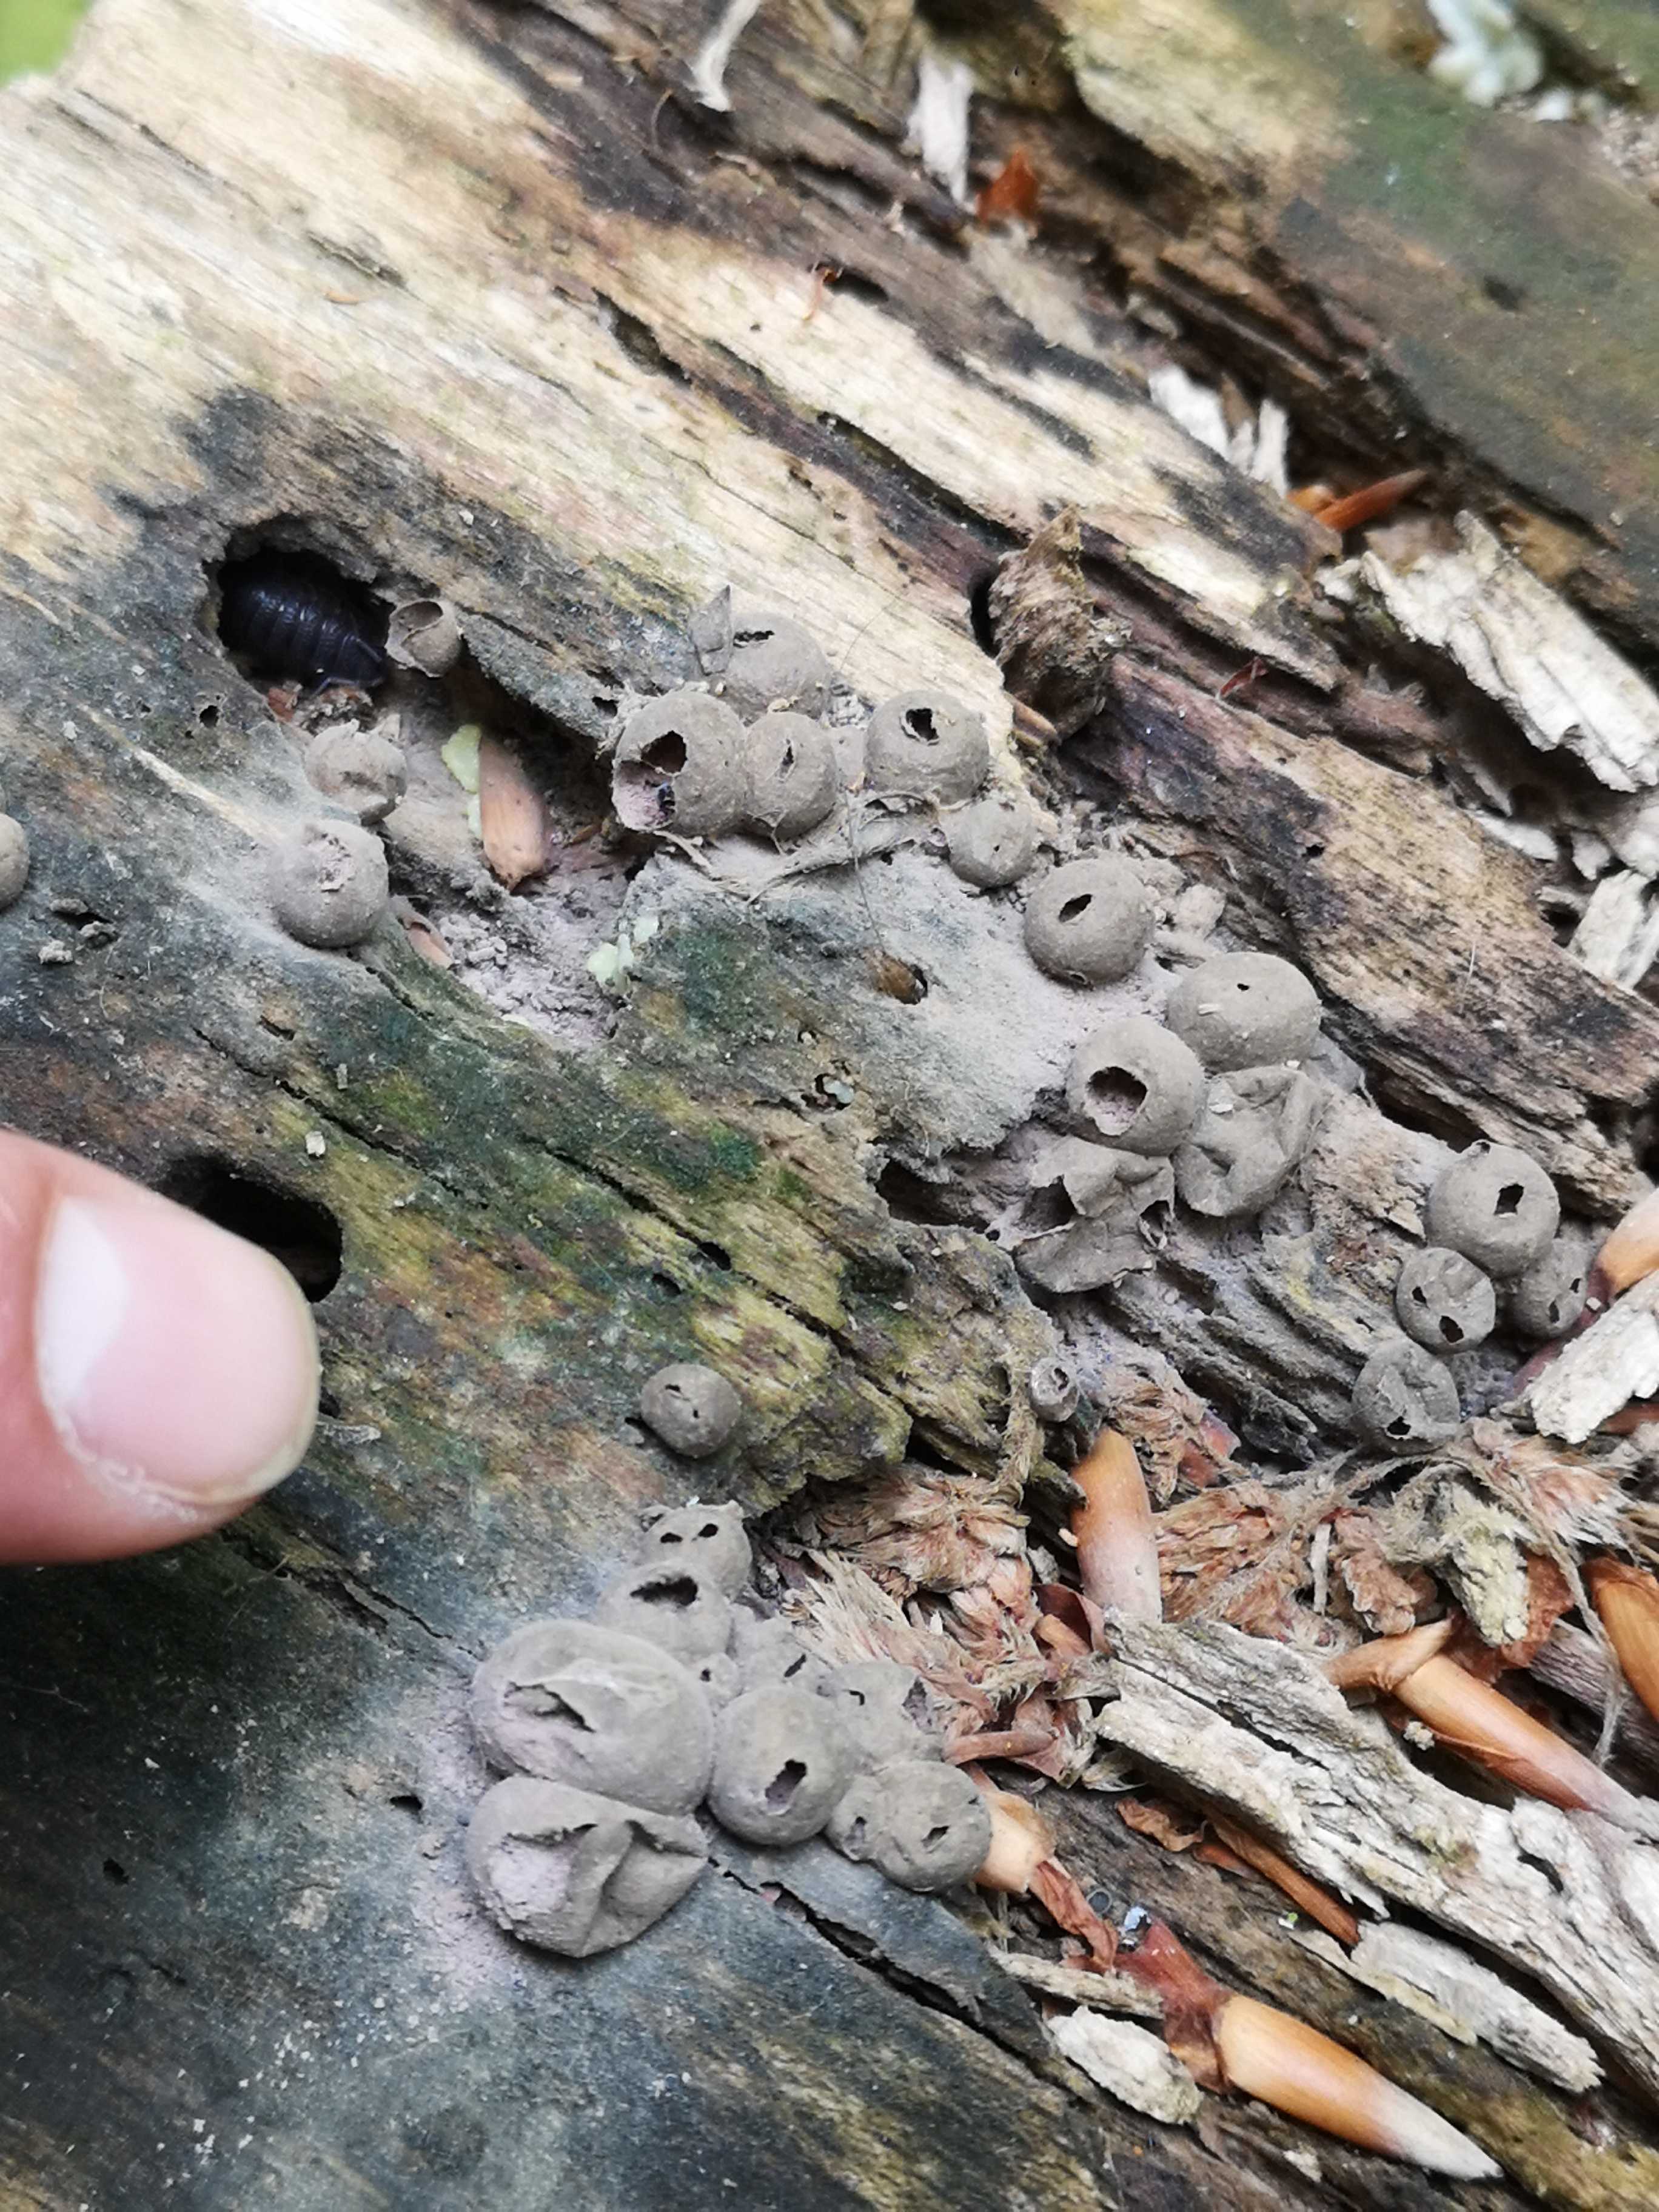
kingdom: Protozoa
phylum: Mycetozoa
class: Myxomycetes
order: Cribrariales
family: Tubiferaceae
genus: Lycogala
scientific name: Lycogala epidendrum
